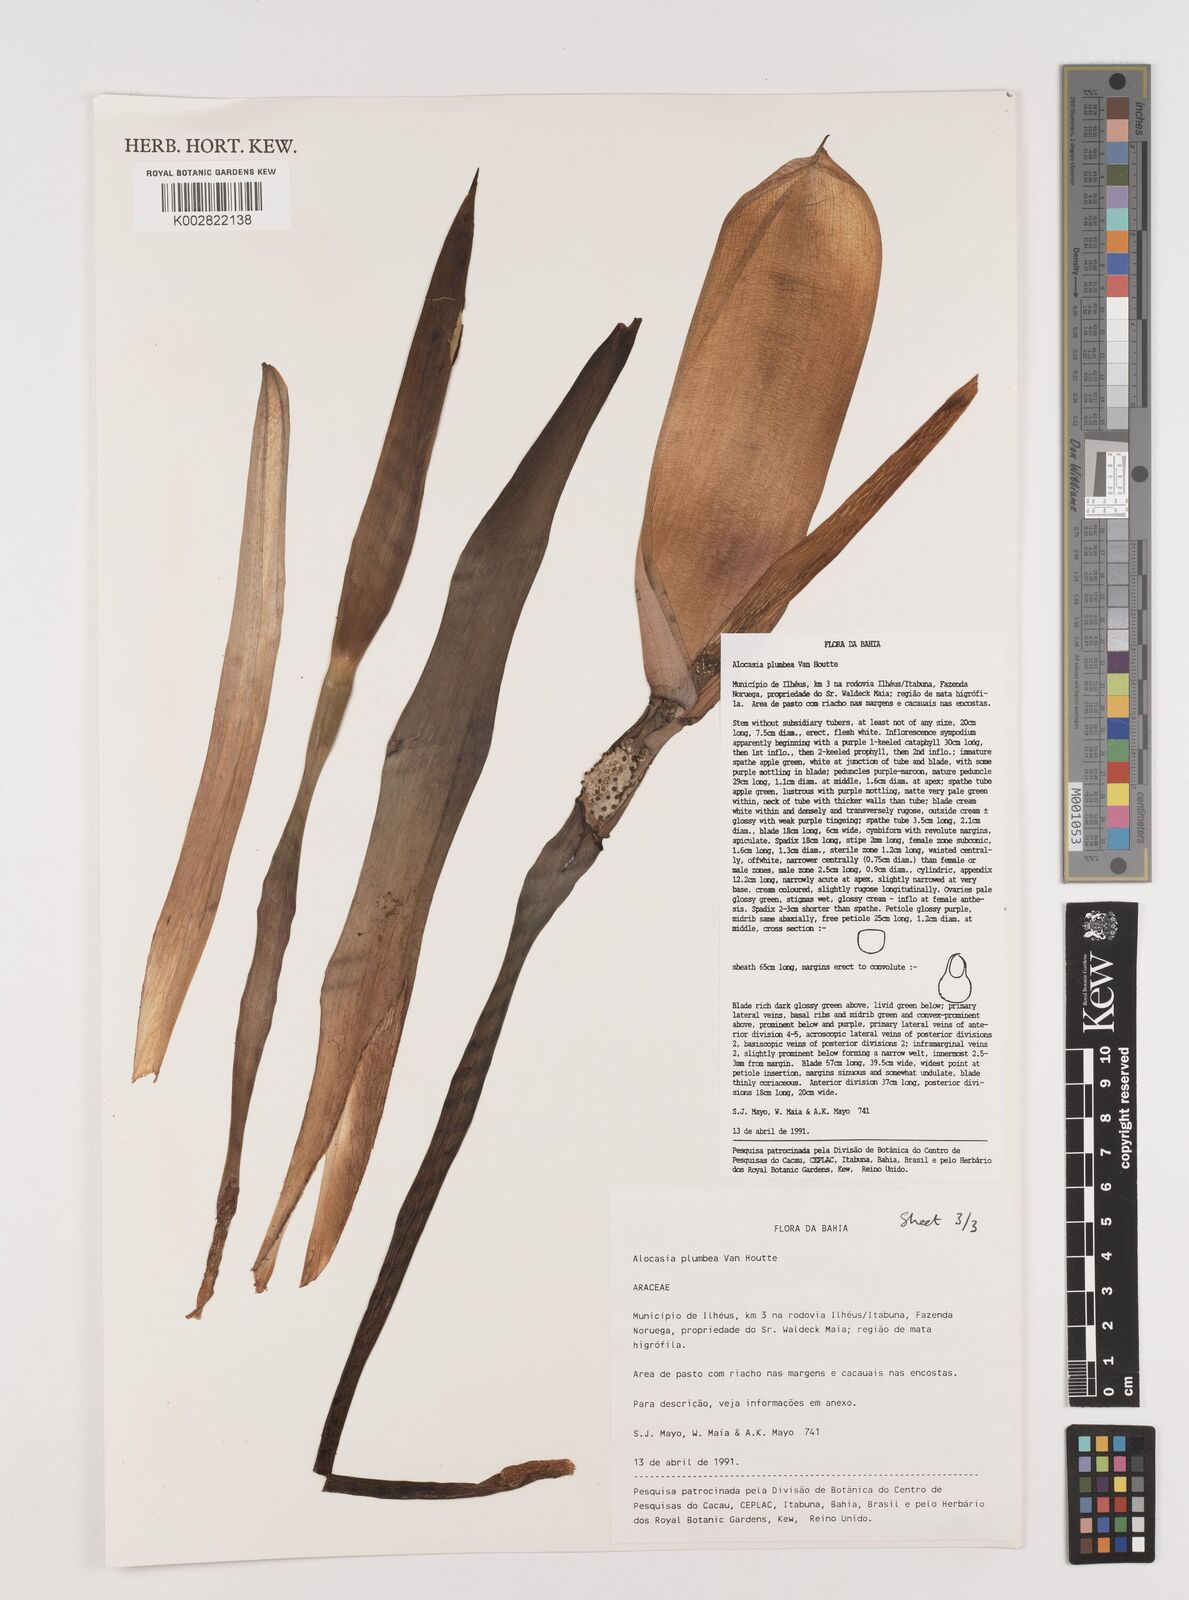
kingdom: Plantae
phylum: Tracheophyta
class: Liliopsida
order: Alismatales
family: Araceae
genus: Alocasia
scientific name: Alocasia macrorrhizos
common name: Giant taro
